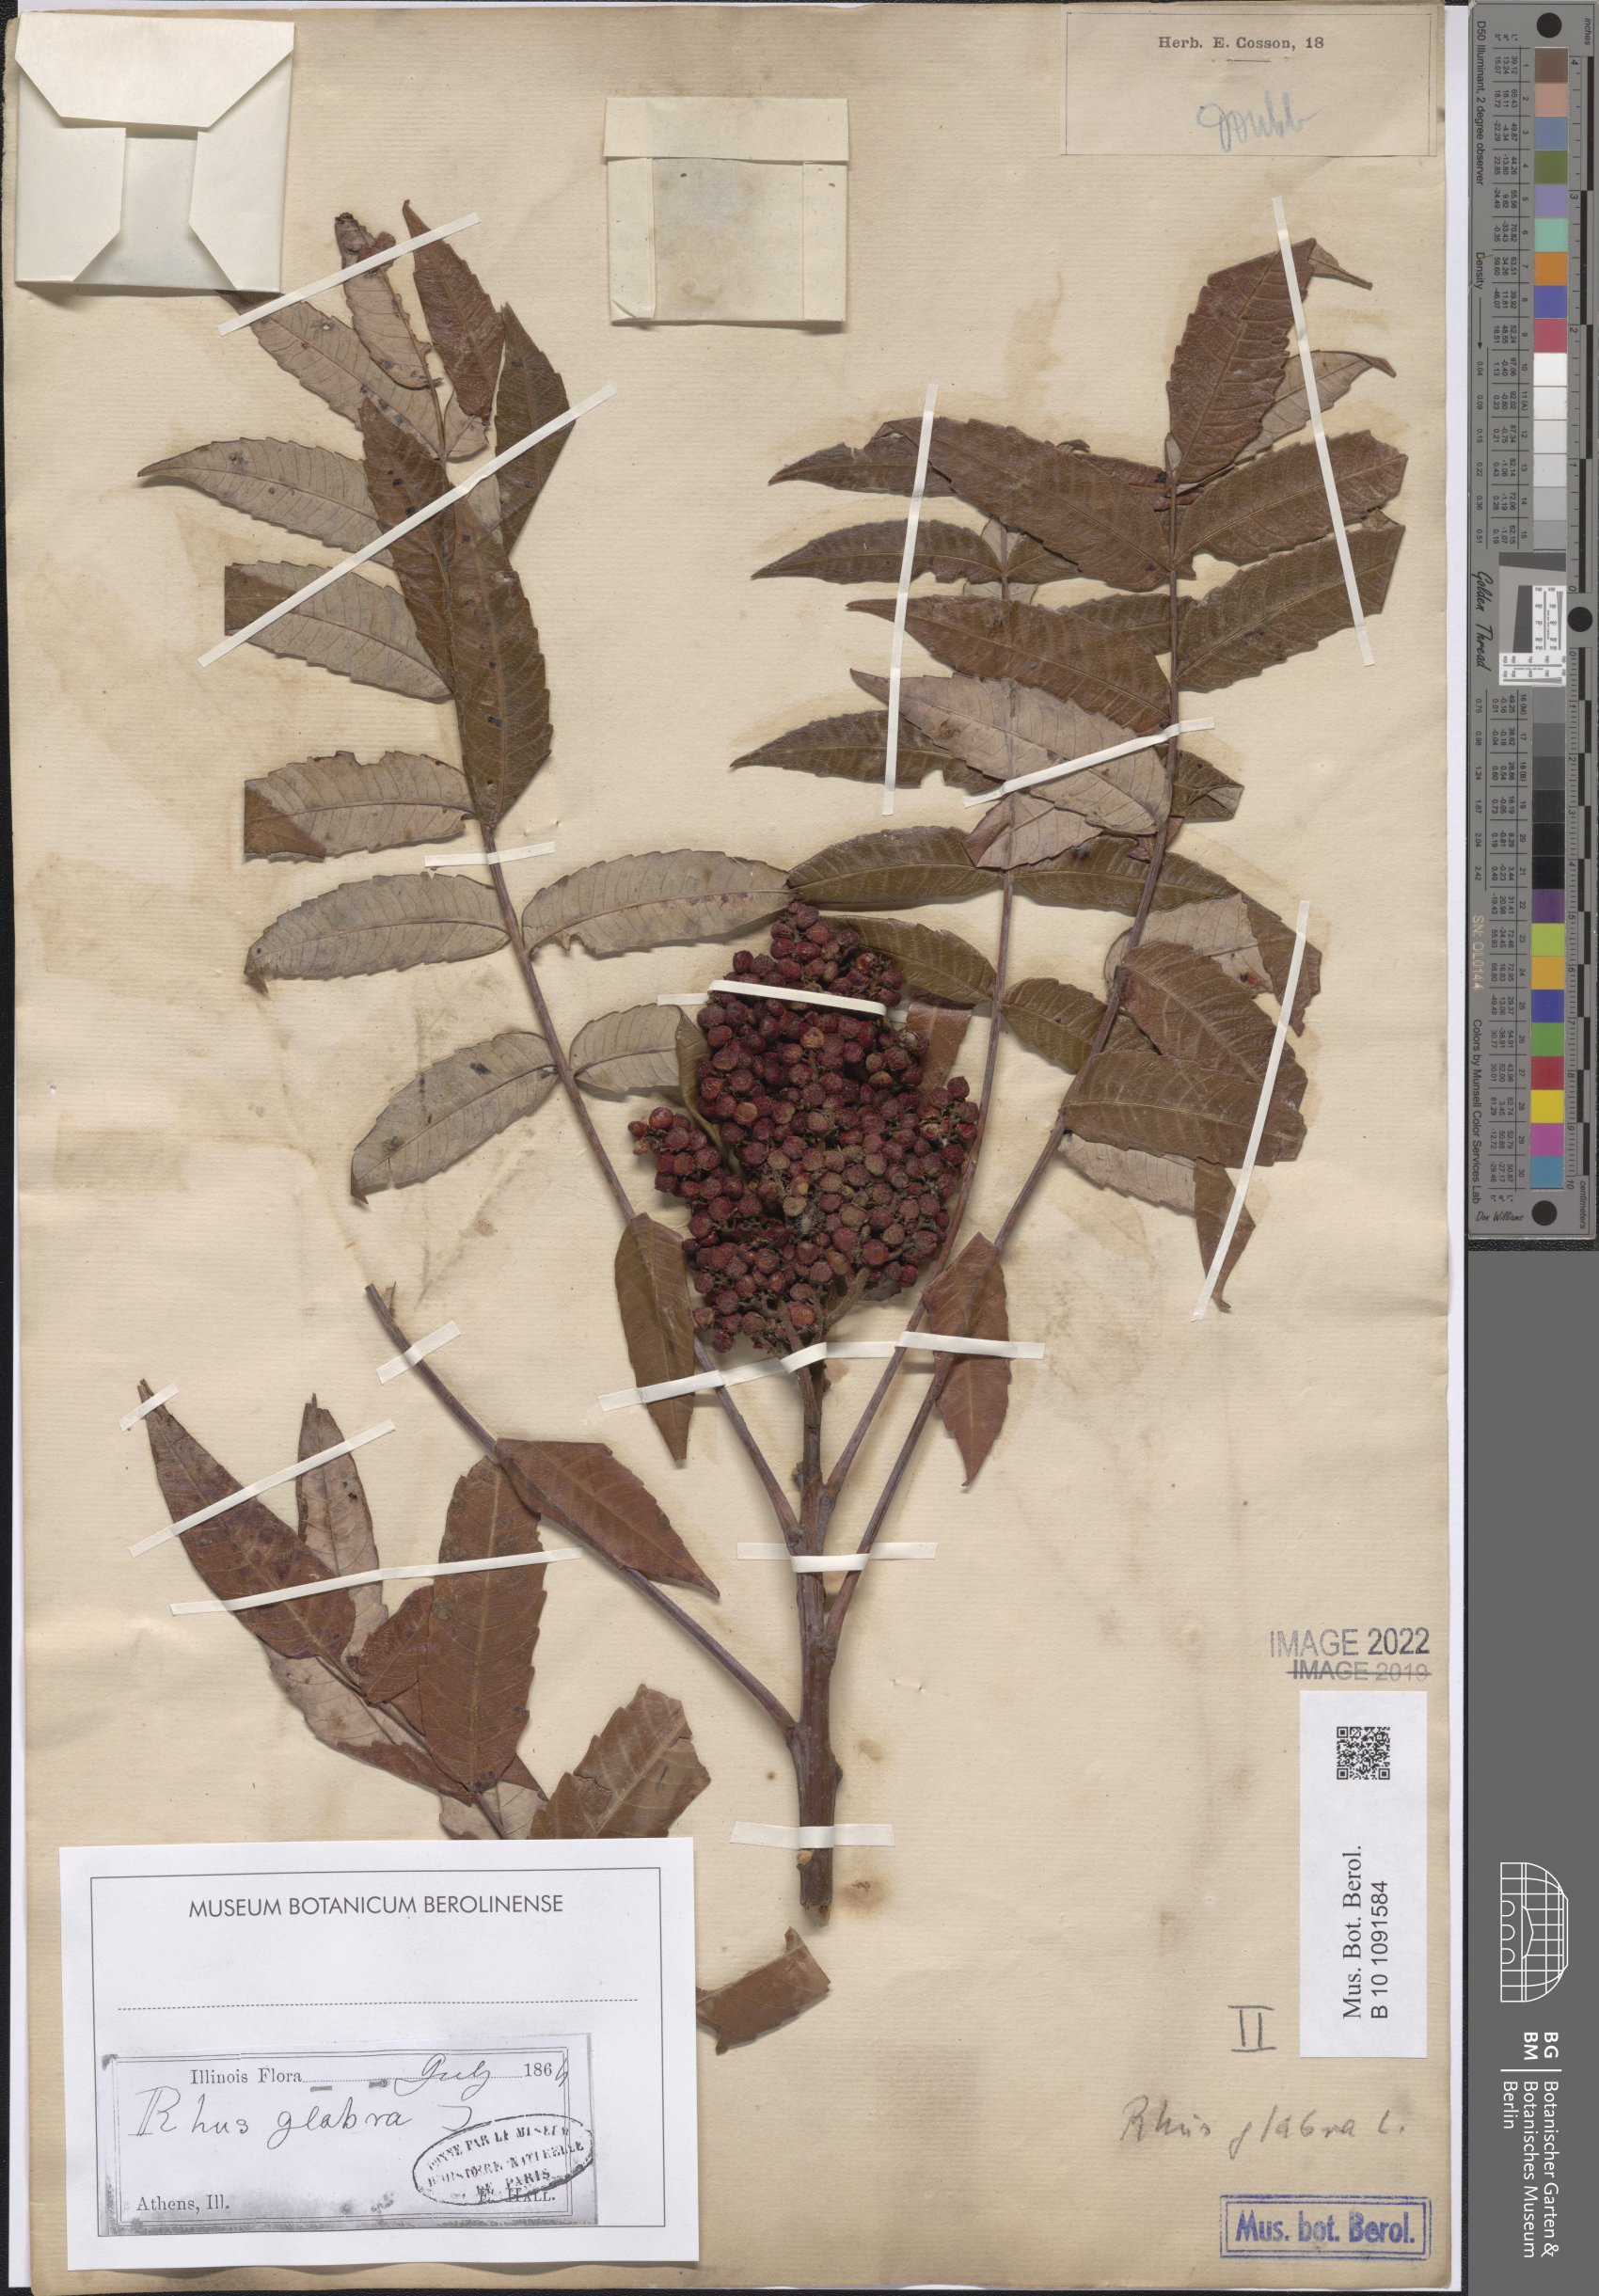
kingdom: Plantae
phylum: Tracheophyta
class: Magnoliopsida
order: Sapindales
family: Anacardiaceae
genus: Rhus
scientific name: Rhus glabra
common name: Scarlet sumac
